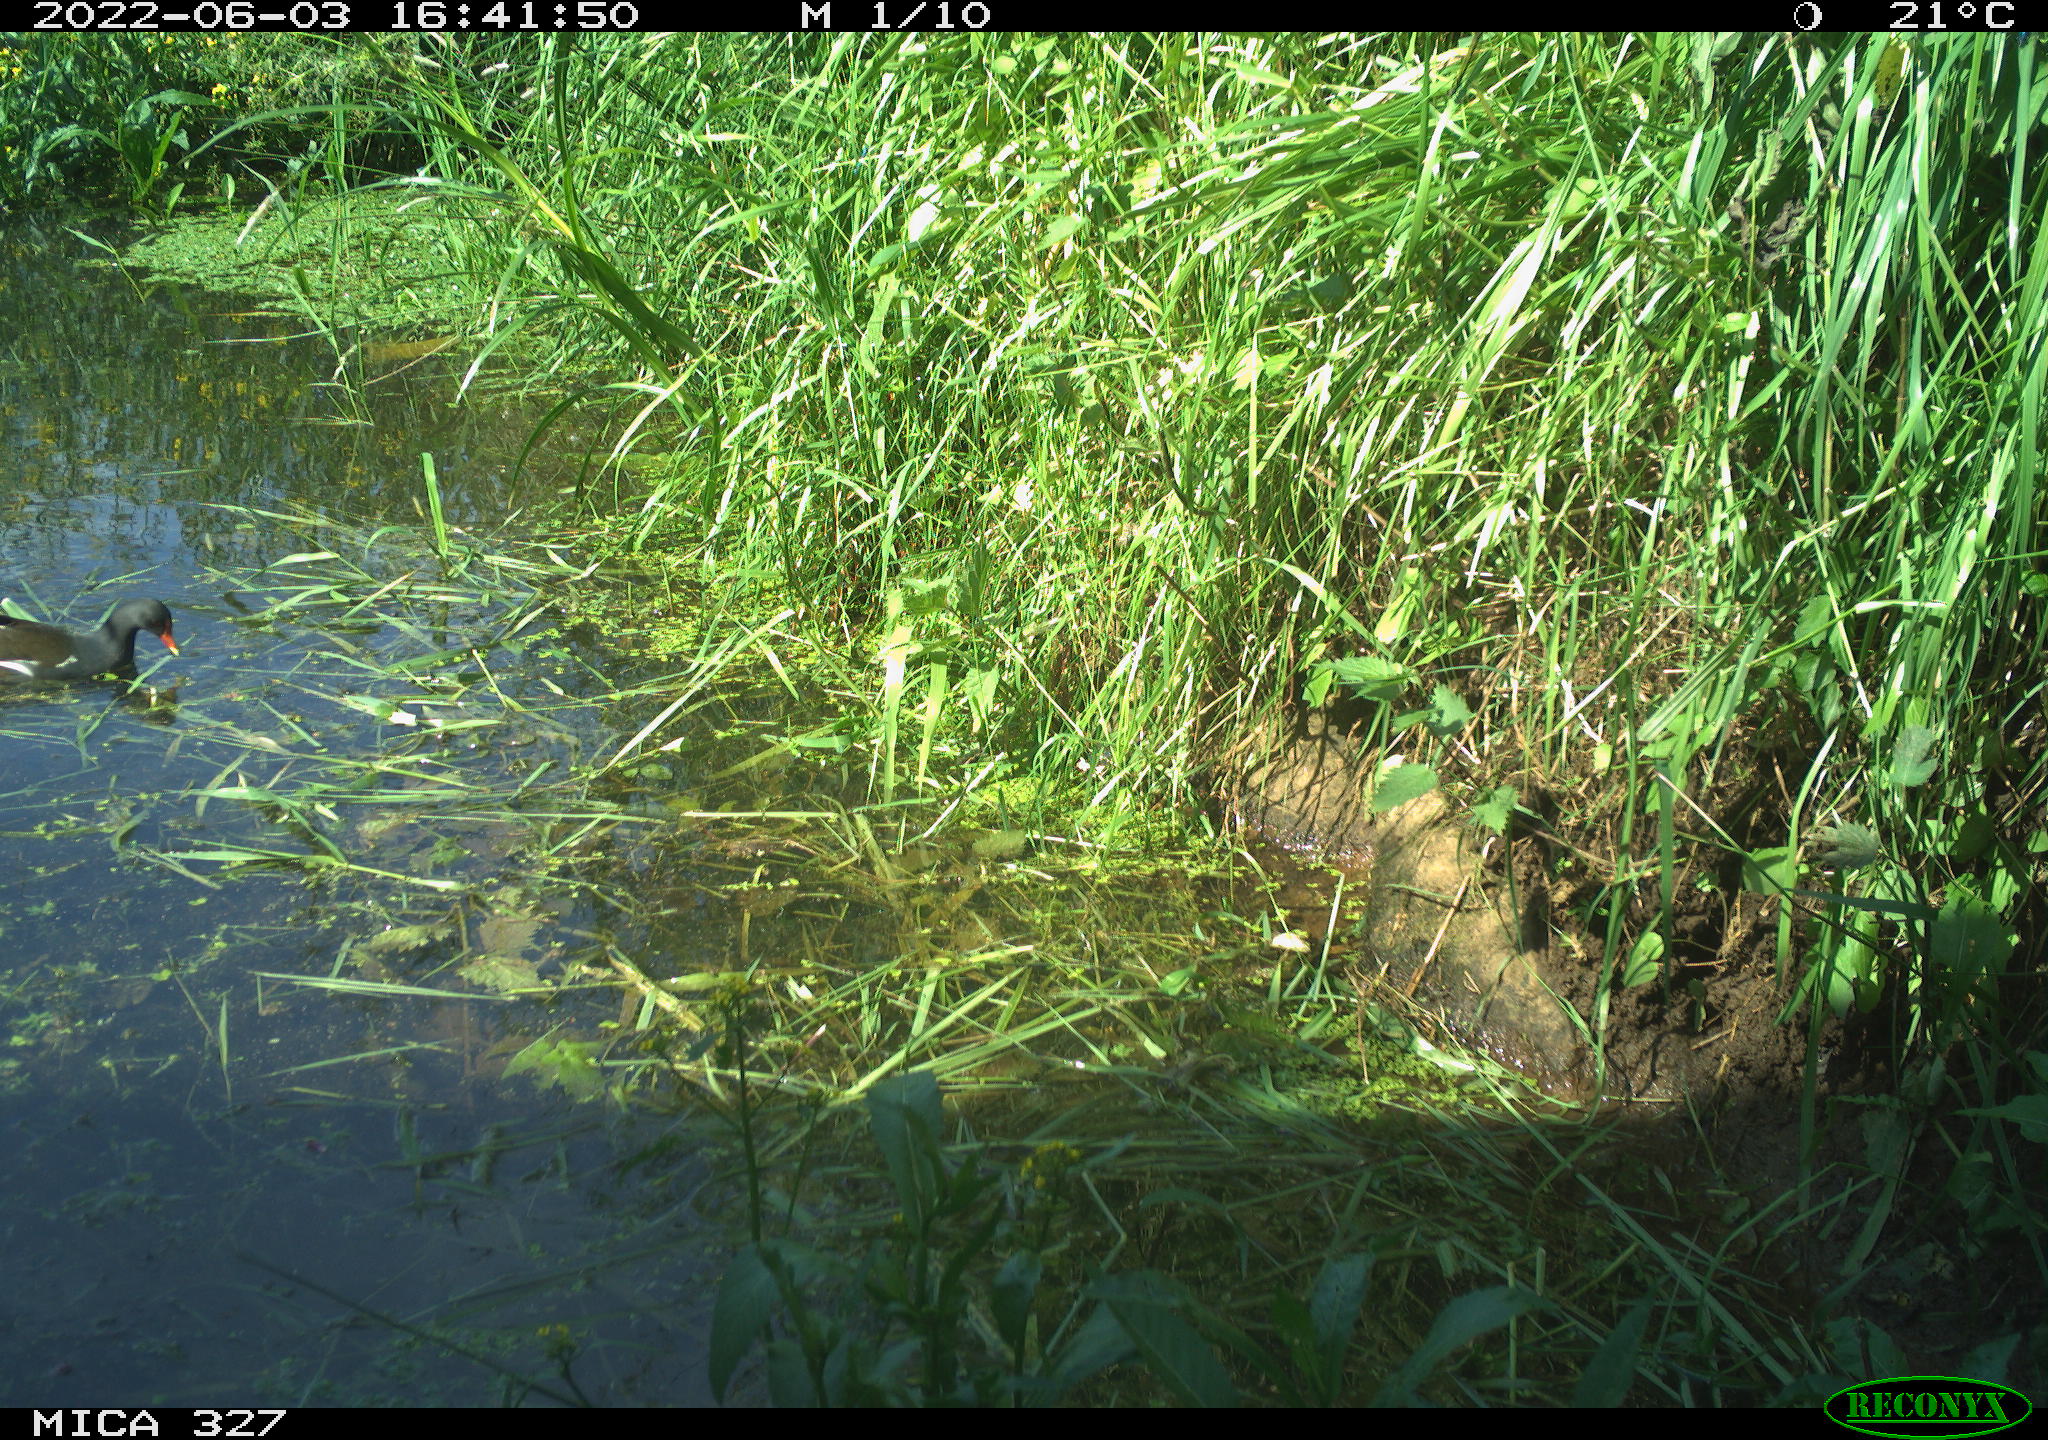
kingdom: Animalia
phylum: Chordata
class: Aves
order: Gruiformes
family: Rallidae
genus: Gallinula
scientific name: Gallinula chloropus
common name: Common moorhen
